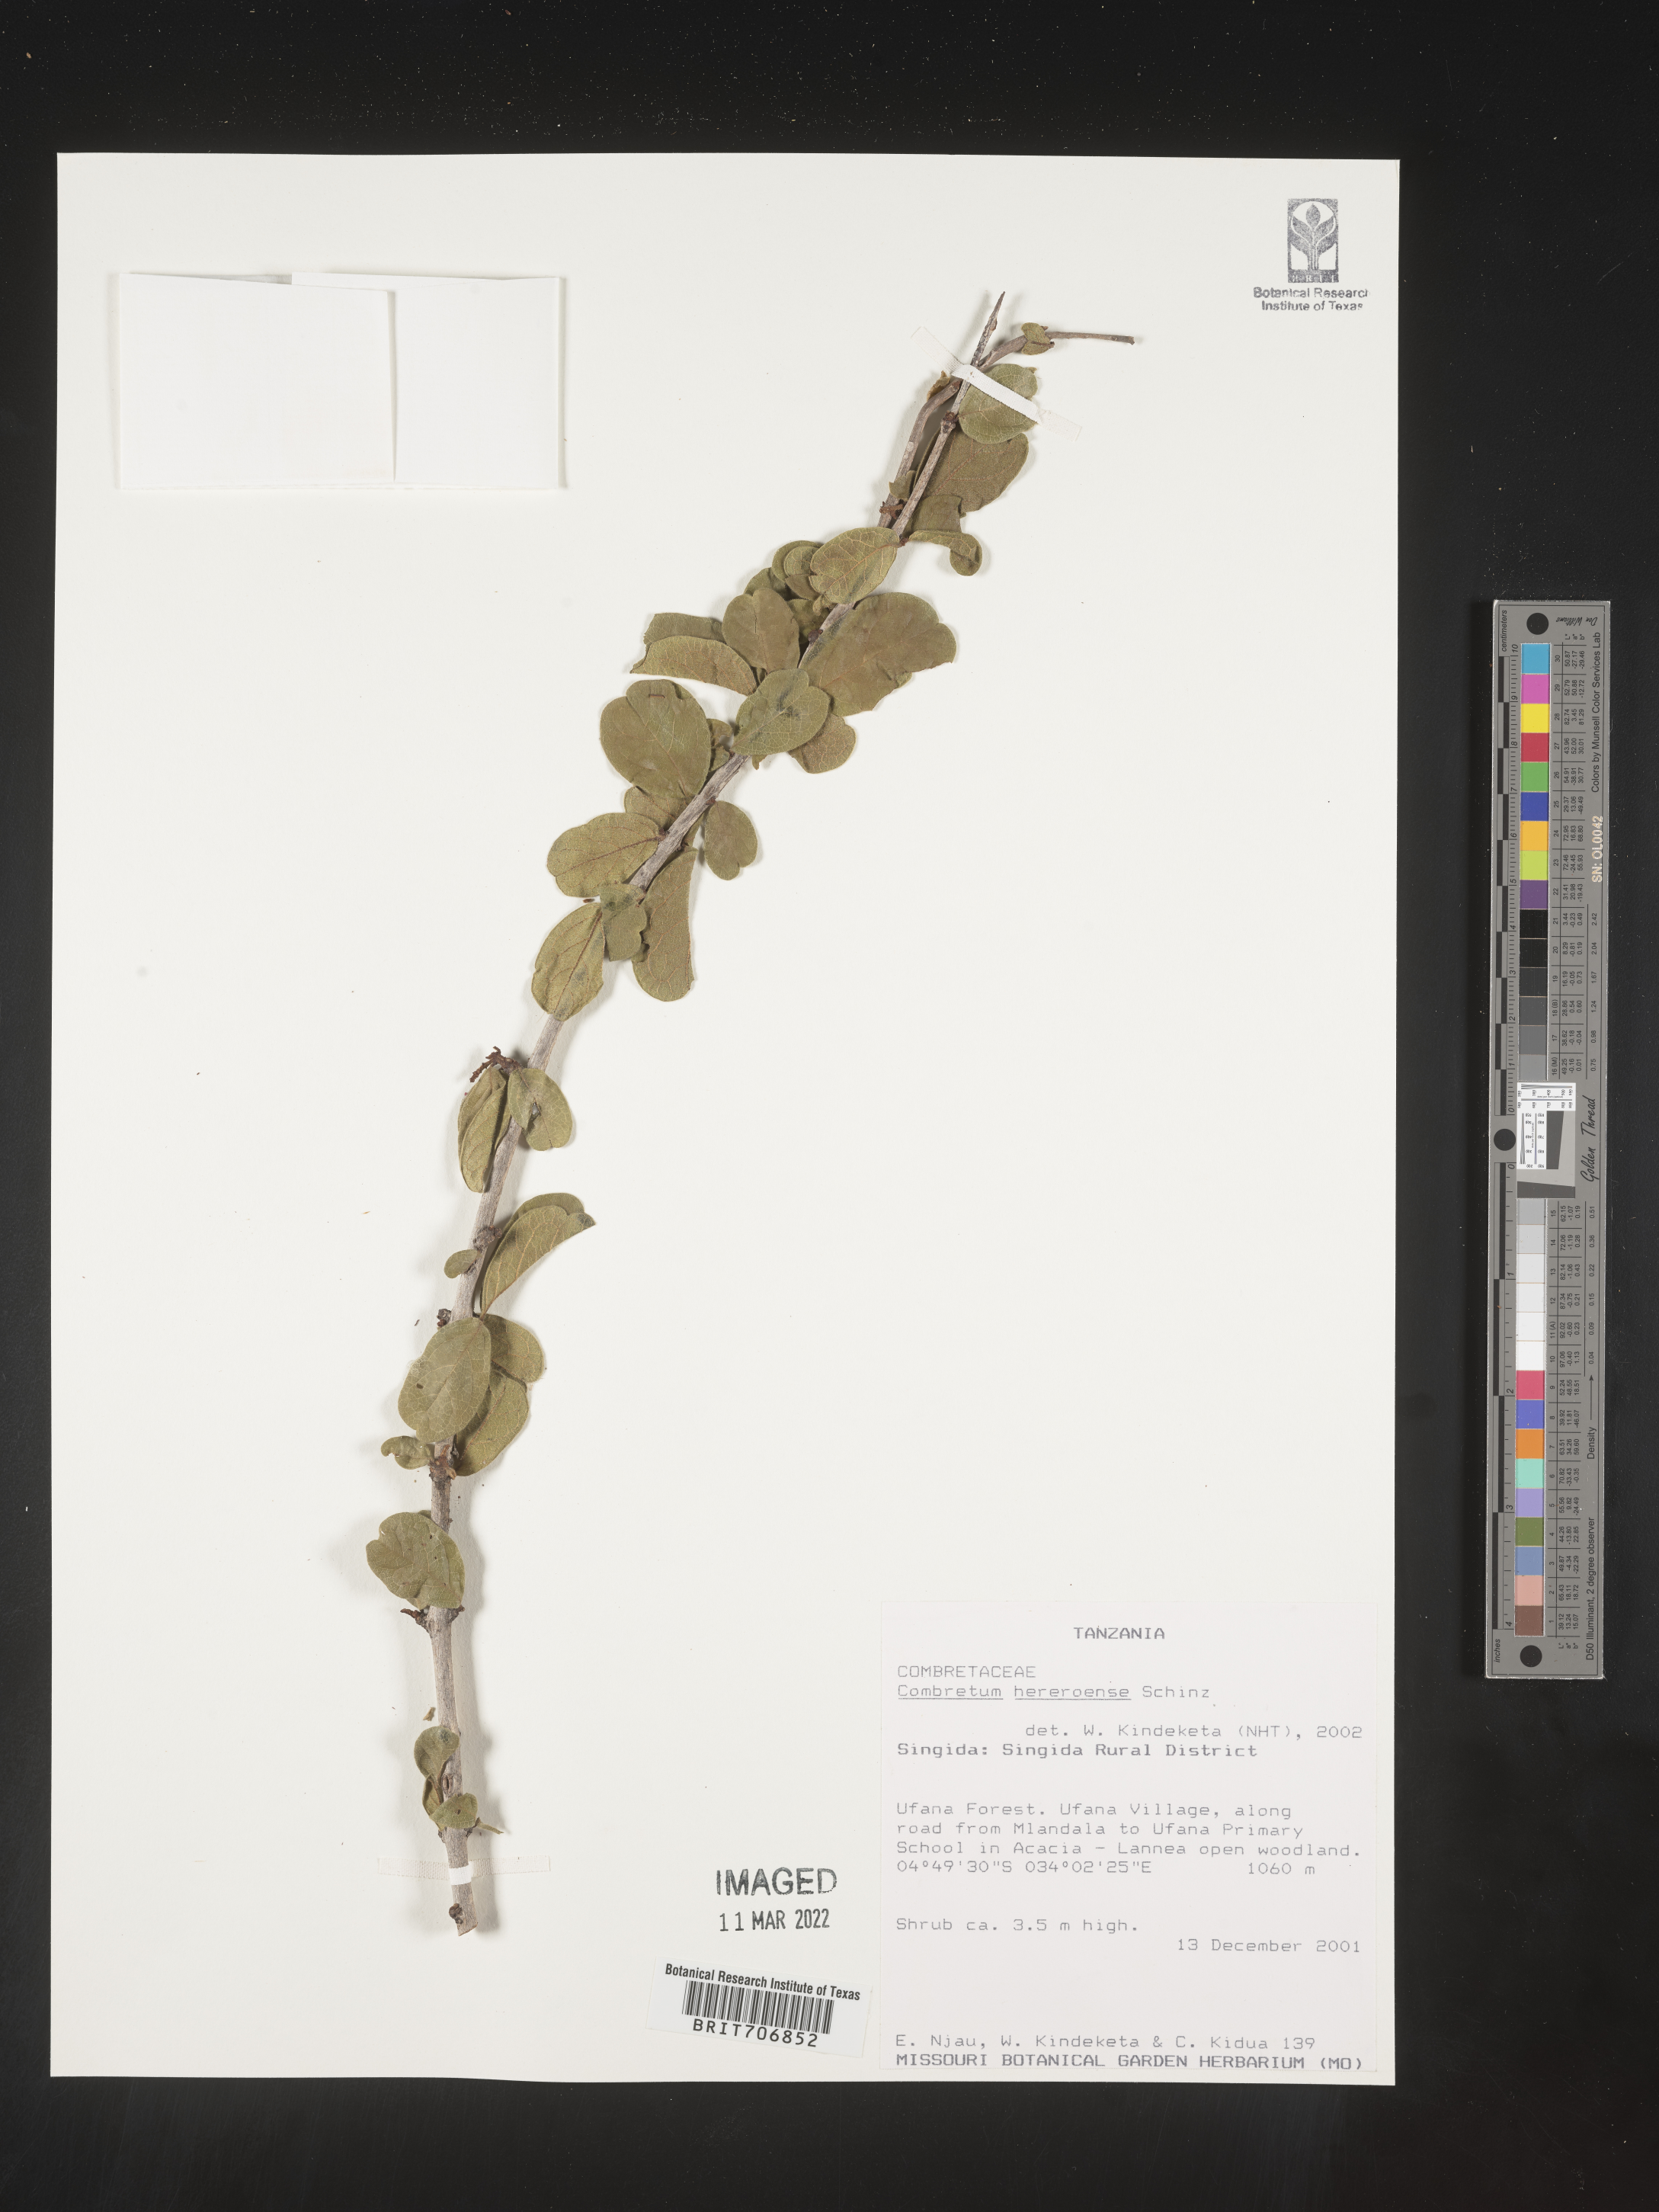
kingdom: Plantae
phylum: Tracheophyta
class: Magnoliopsida
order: Myrtales
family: Combretaceae
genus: Combretum
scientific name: Combretum
